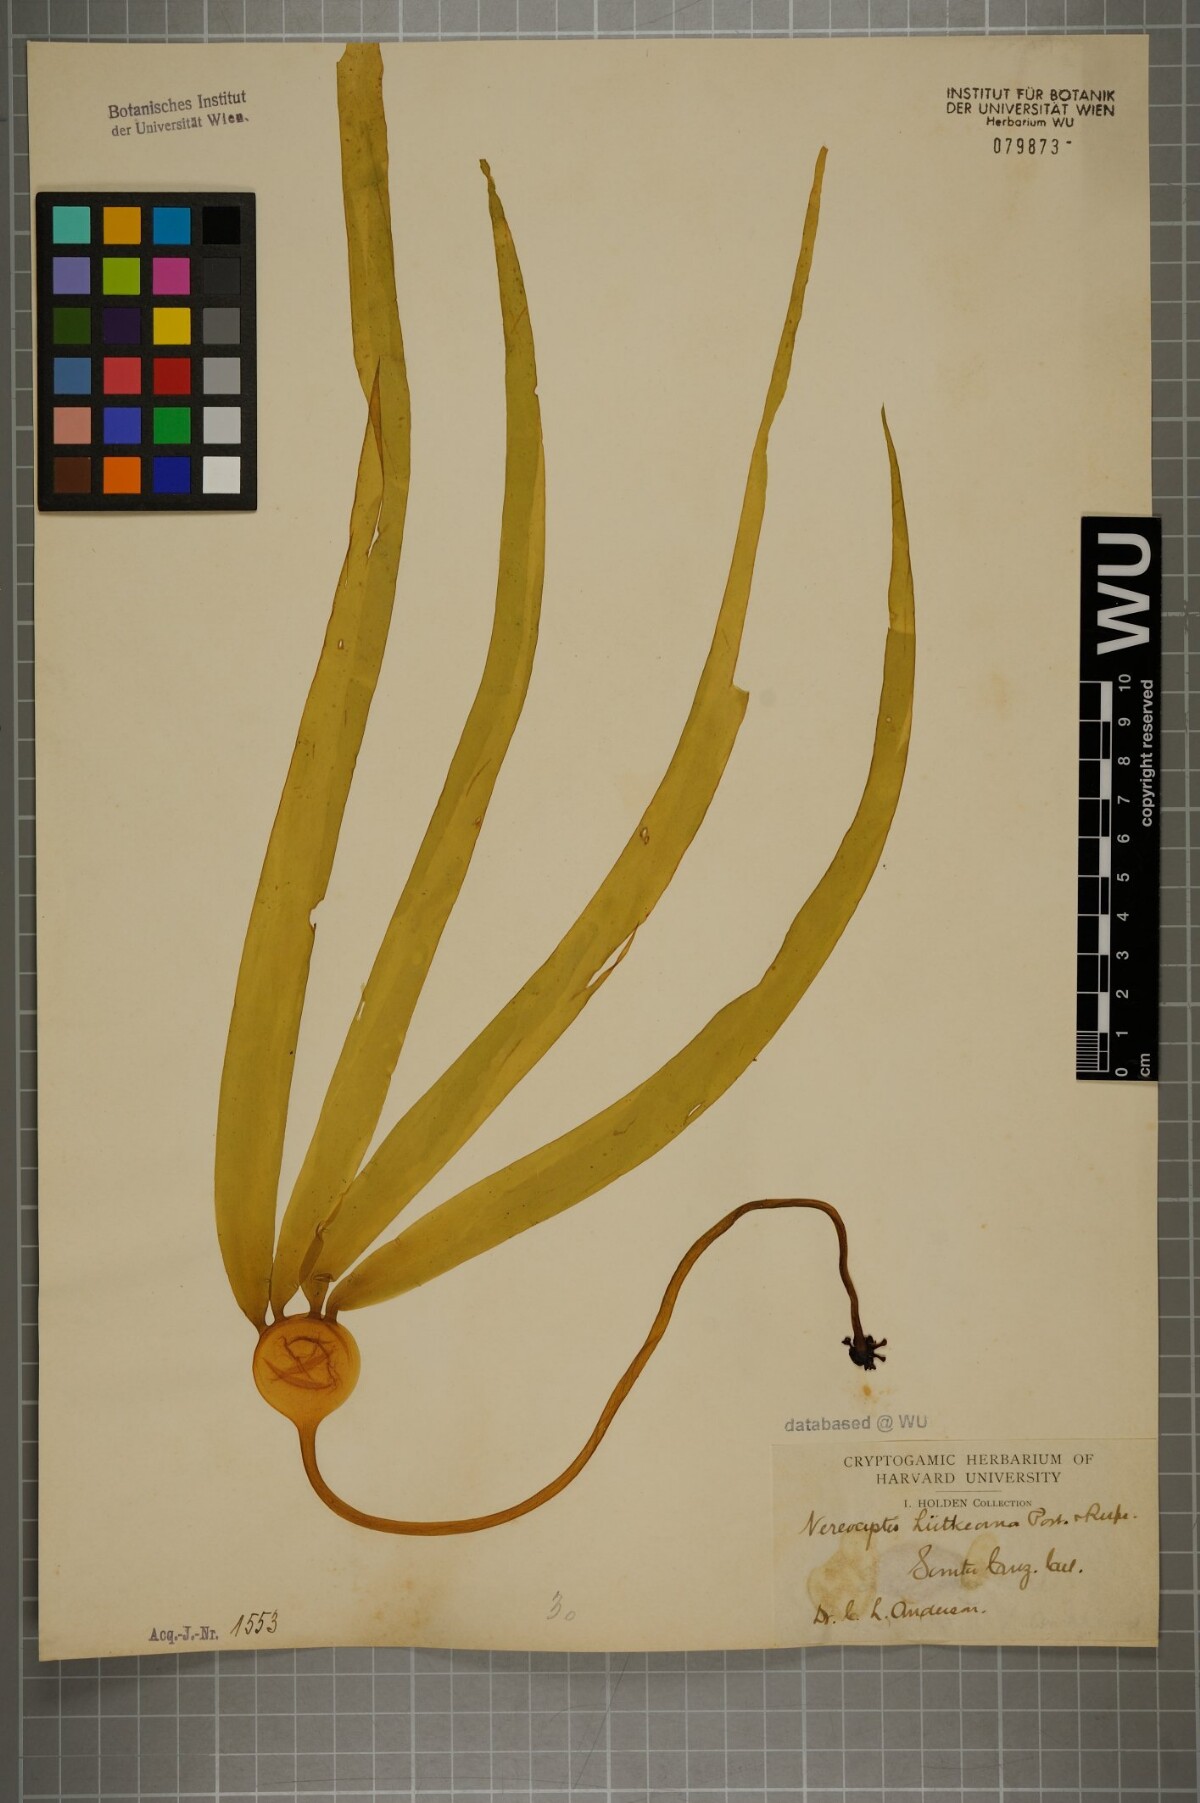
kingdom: Chromista
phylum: Ochrophyta
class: Phaeophyceae
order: Laminariales
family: Laminariaceae
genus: Nereocystis
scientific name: Nereocystis luetkeana
